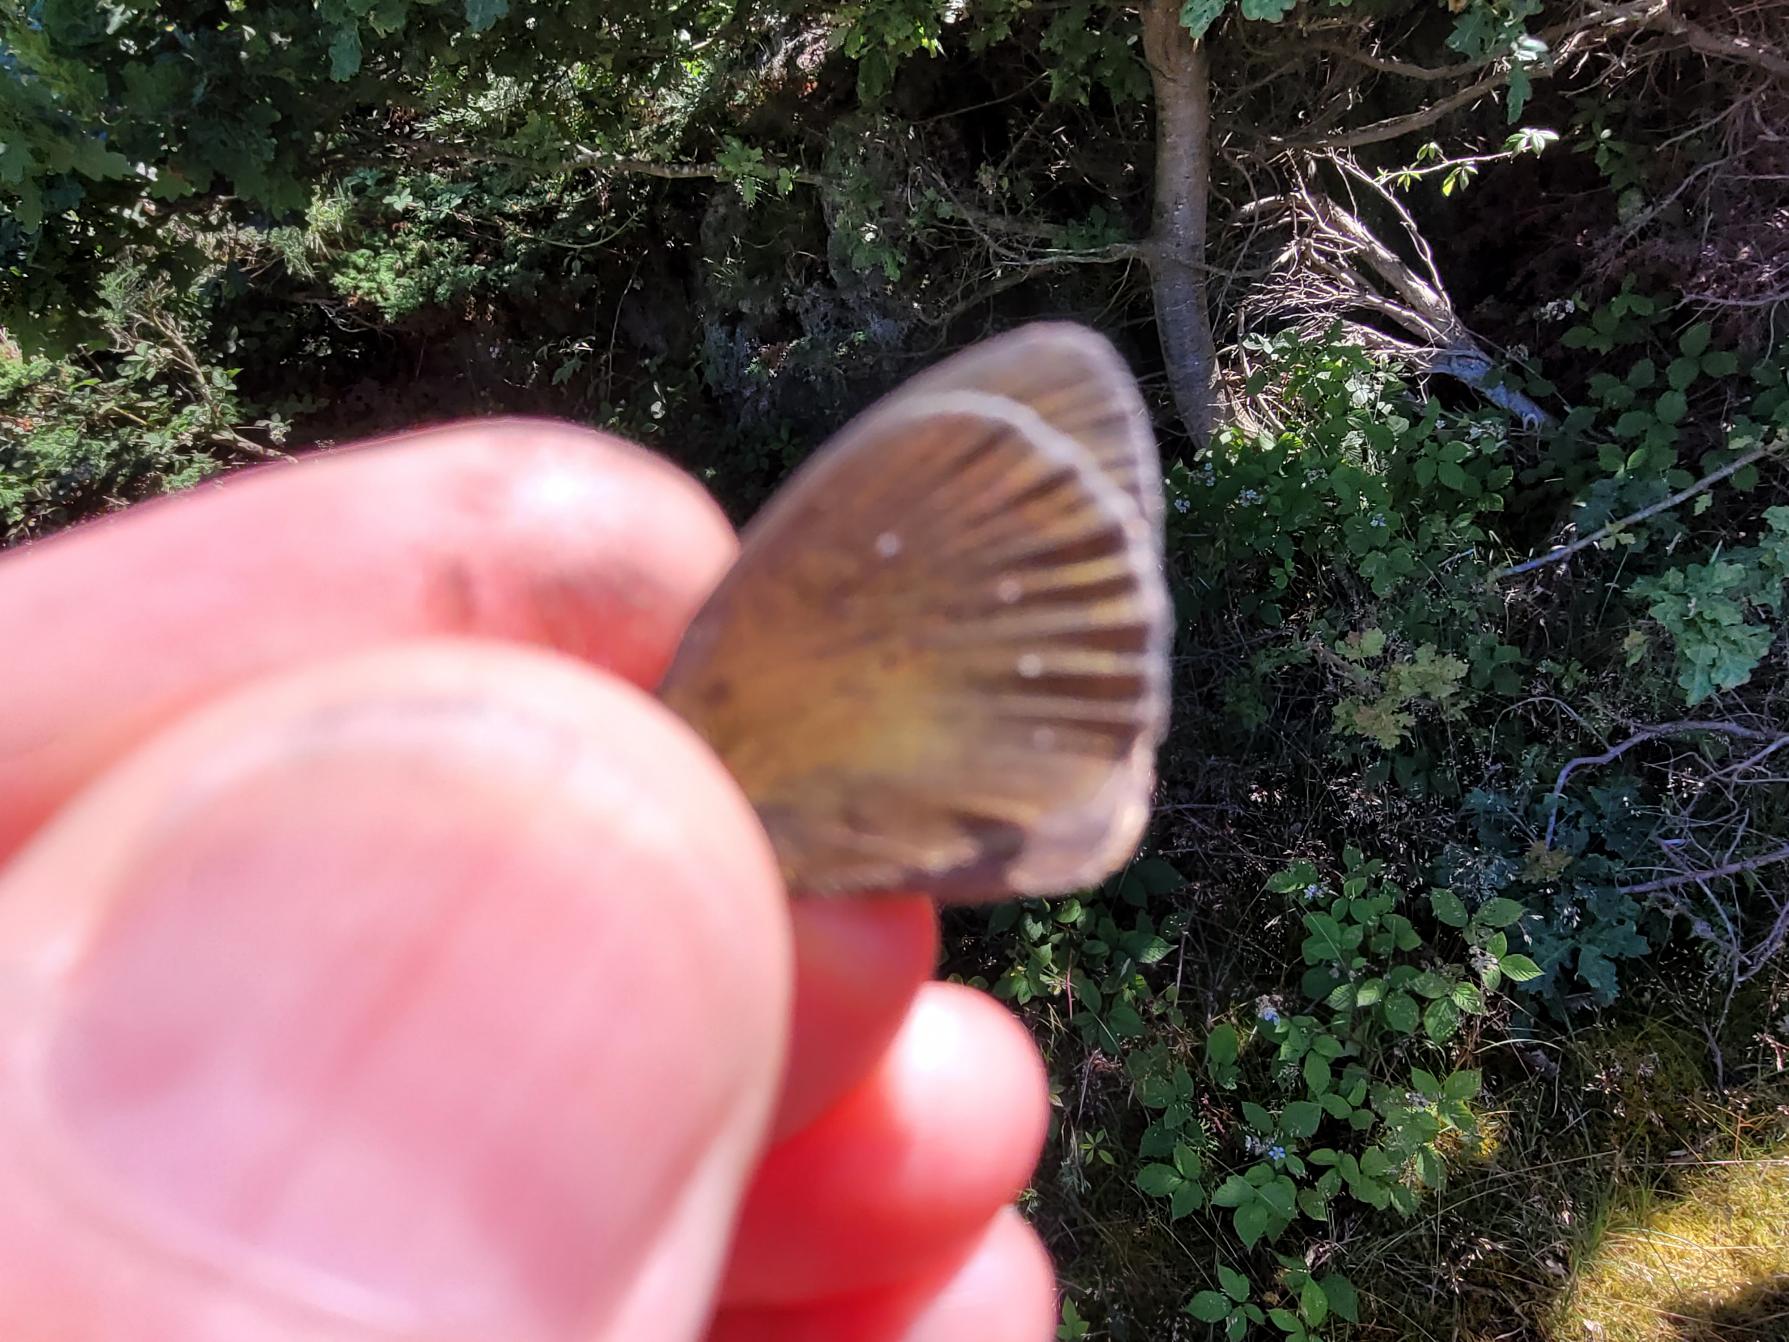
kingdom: Animalia
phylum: Arthropoda
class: Insecta
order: Lepidoptera
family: Nymphalidae
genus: Aphantopus
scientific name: Aphantopus hyperantus
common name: Engrandøje
